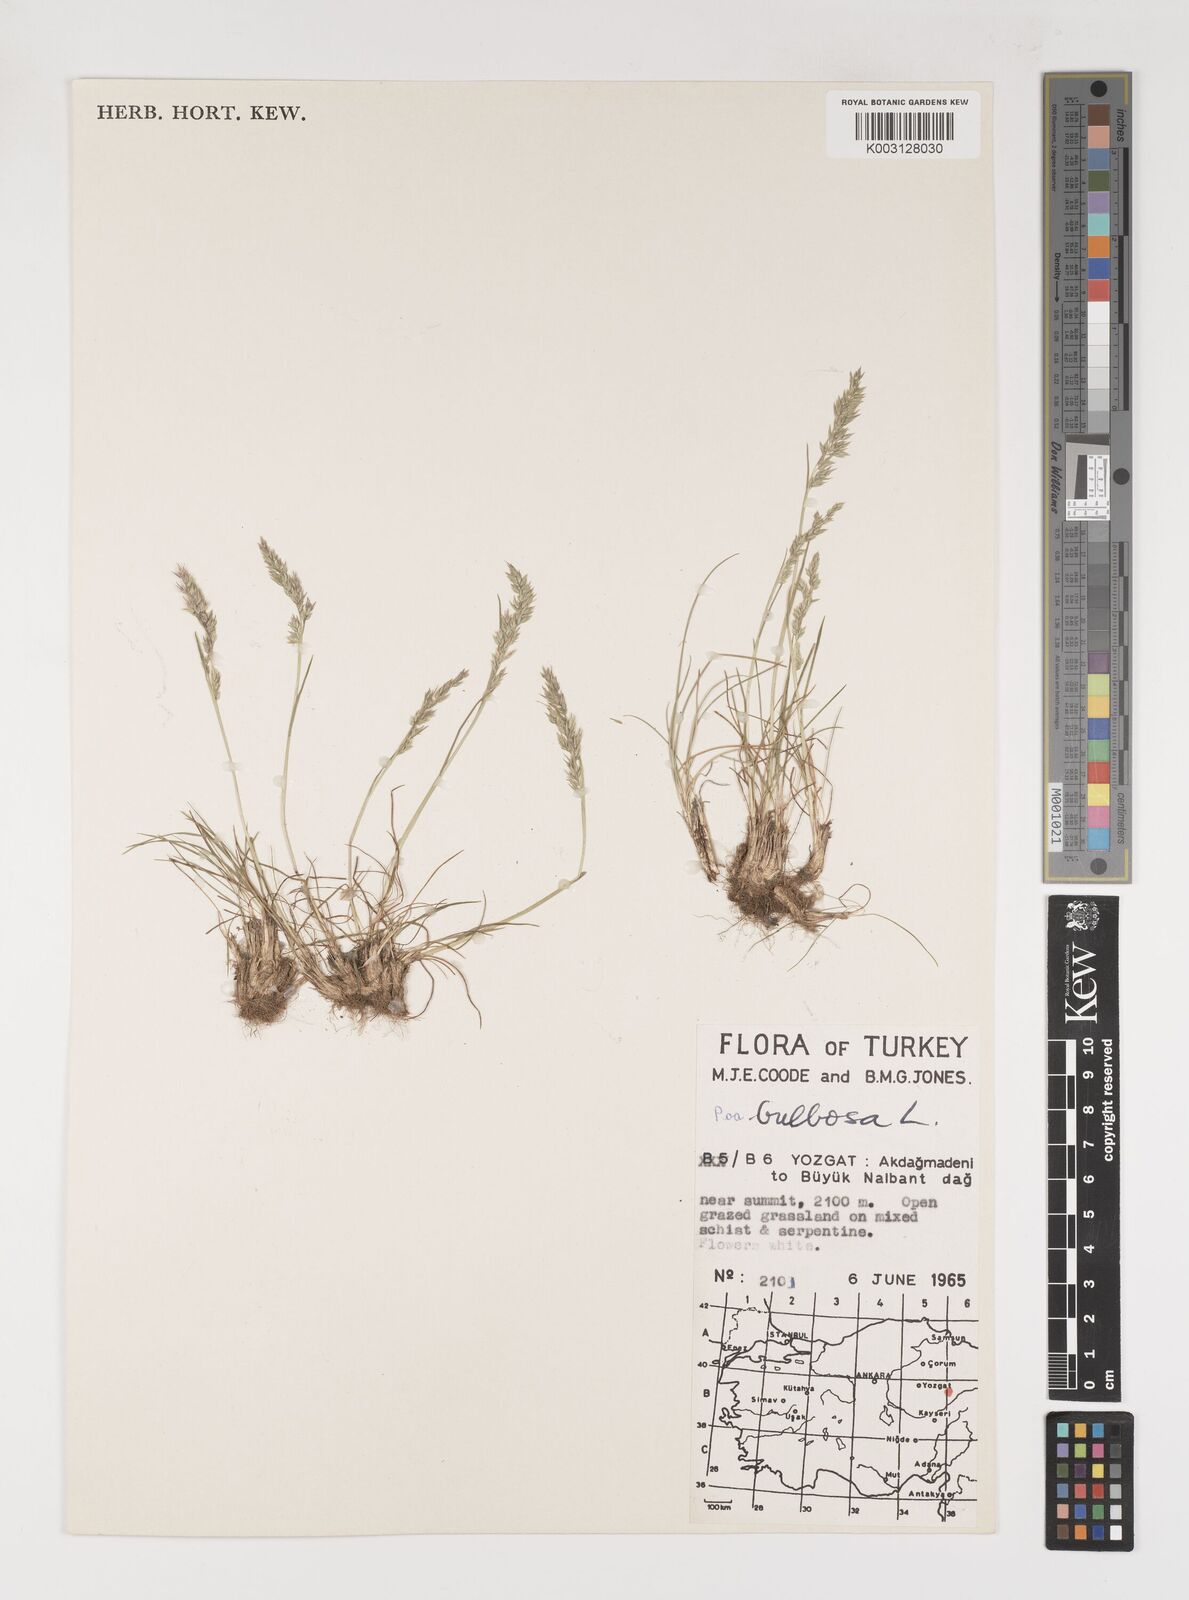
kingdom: Plantae
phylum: Tracheophyta
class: Liliopsida
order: Poales
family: Poaceae
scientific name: Poaceae
